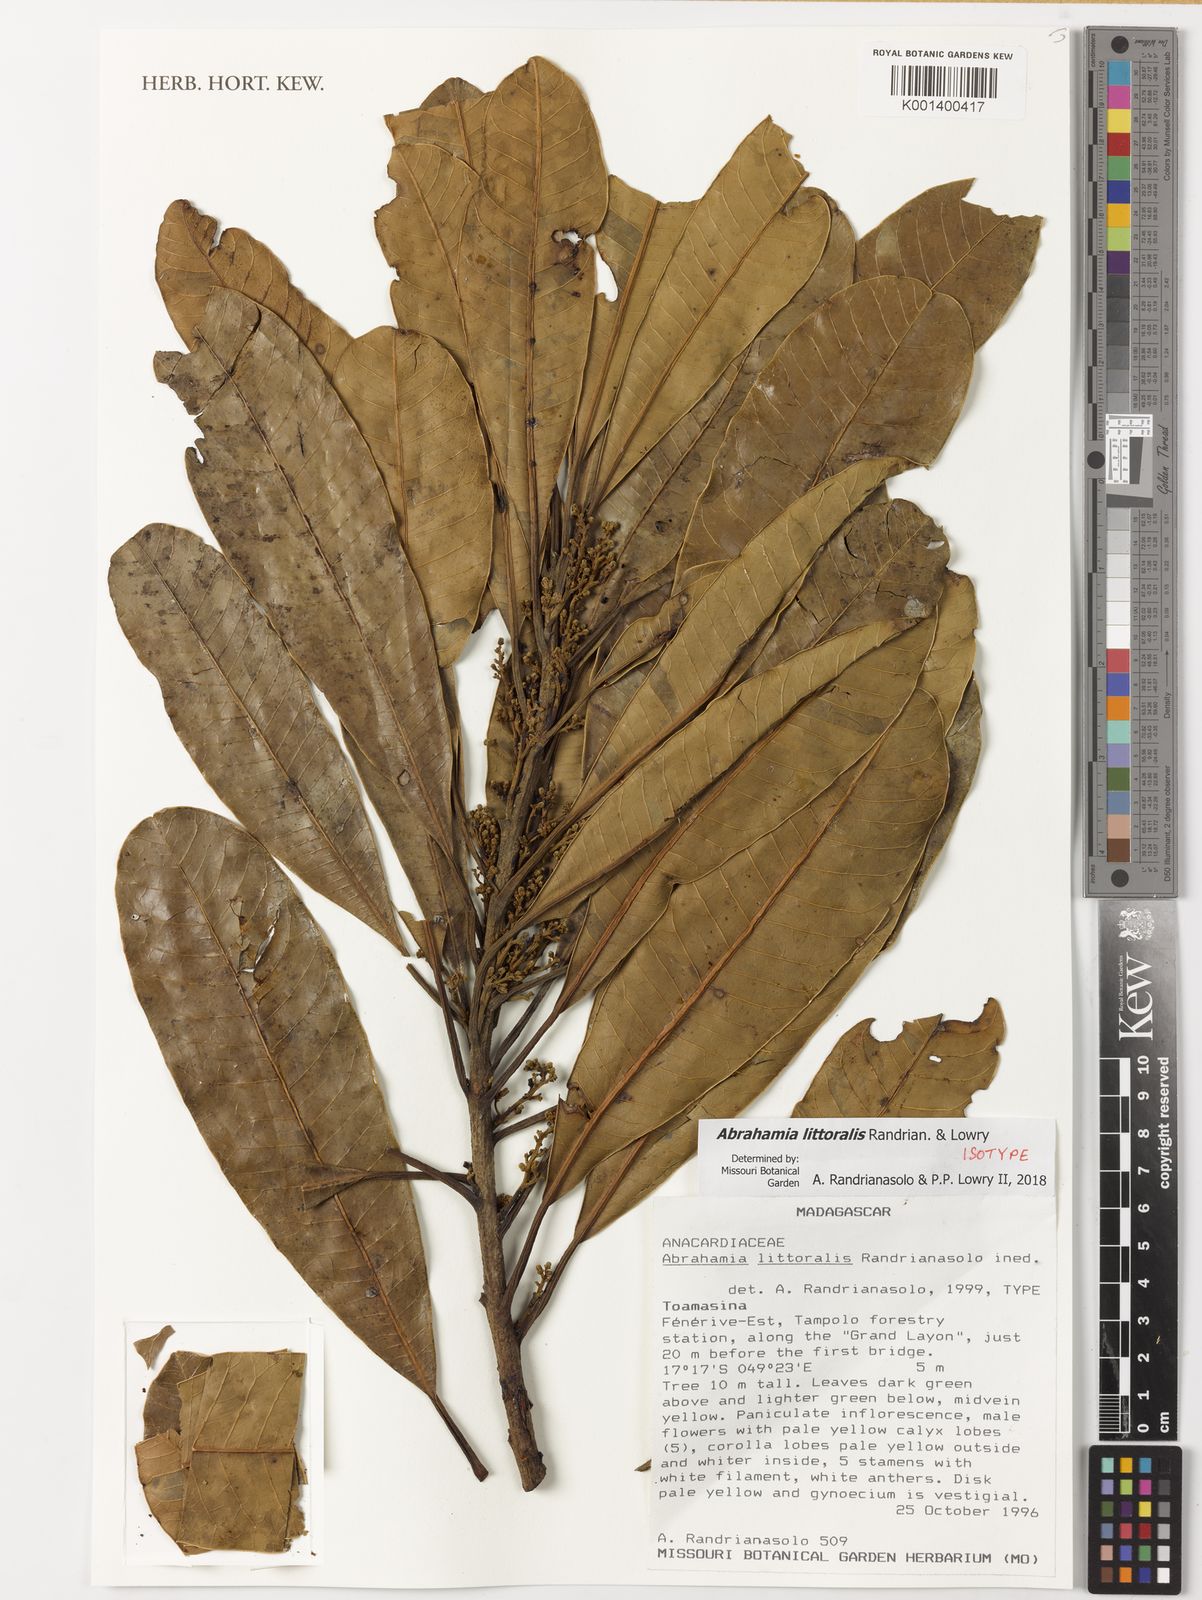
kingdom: Plantae
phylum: Tracheophyta
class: Magnoliopsida
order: Sapindales
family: Anacardiaceae
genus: Abrahamia
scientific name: Abrahamia littoralis
